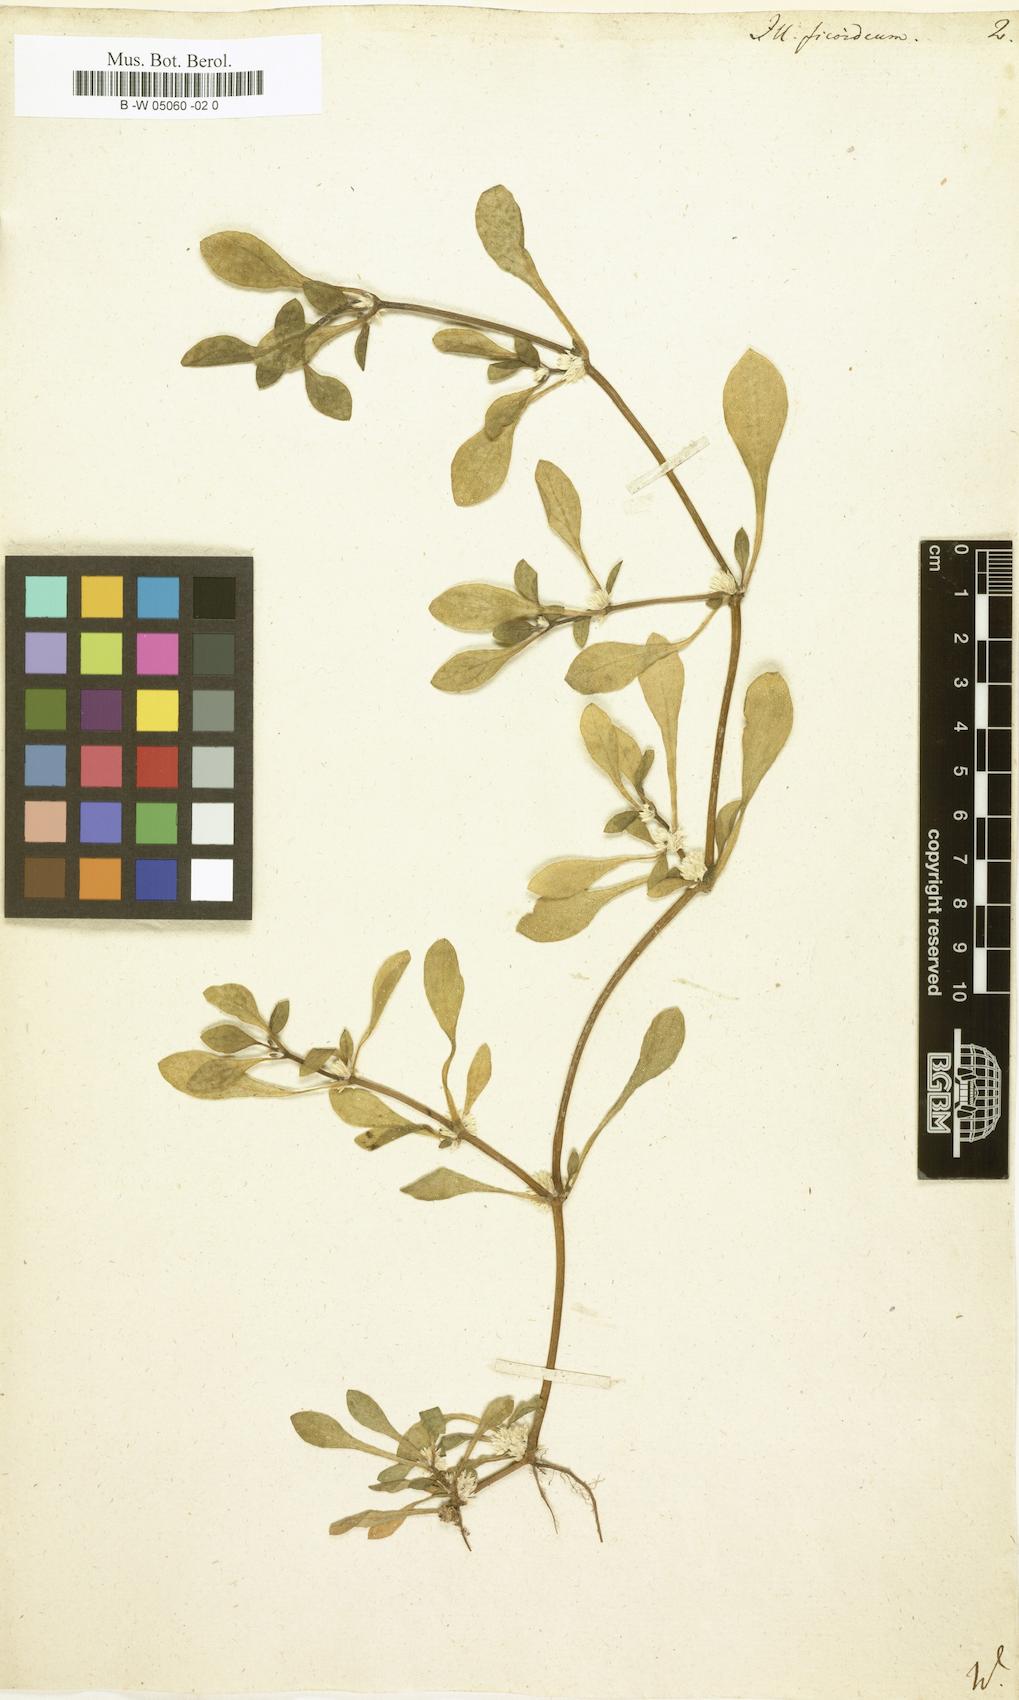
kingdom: Plantae
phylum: Tracheophyta
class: Magnoliopsida
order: Caryophyllales
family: Caryophyllaceae
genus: Illecebrum
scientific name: Illecebrum
